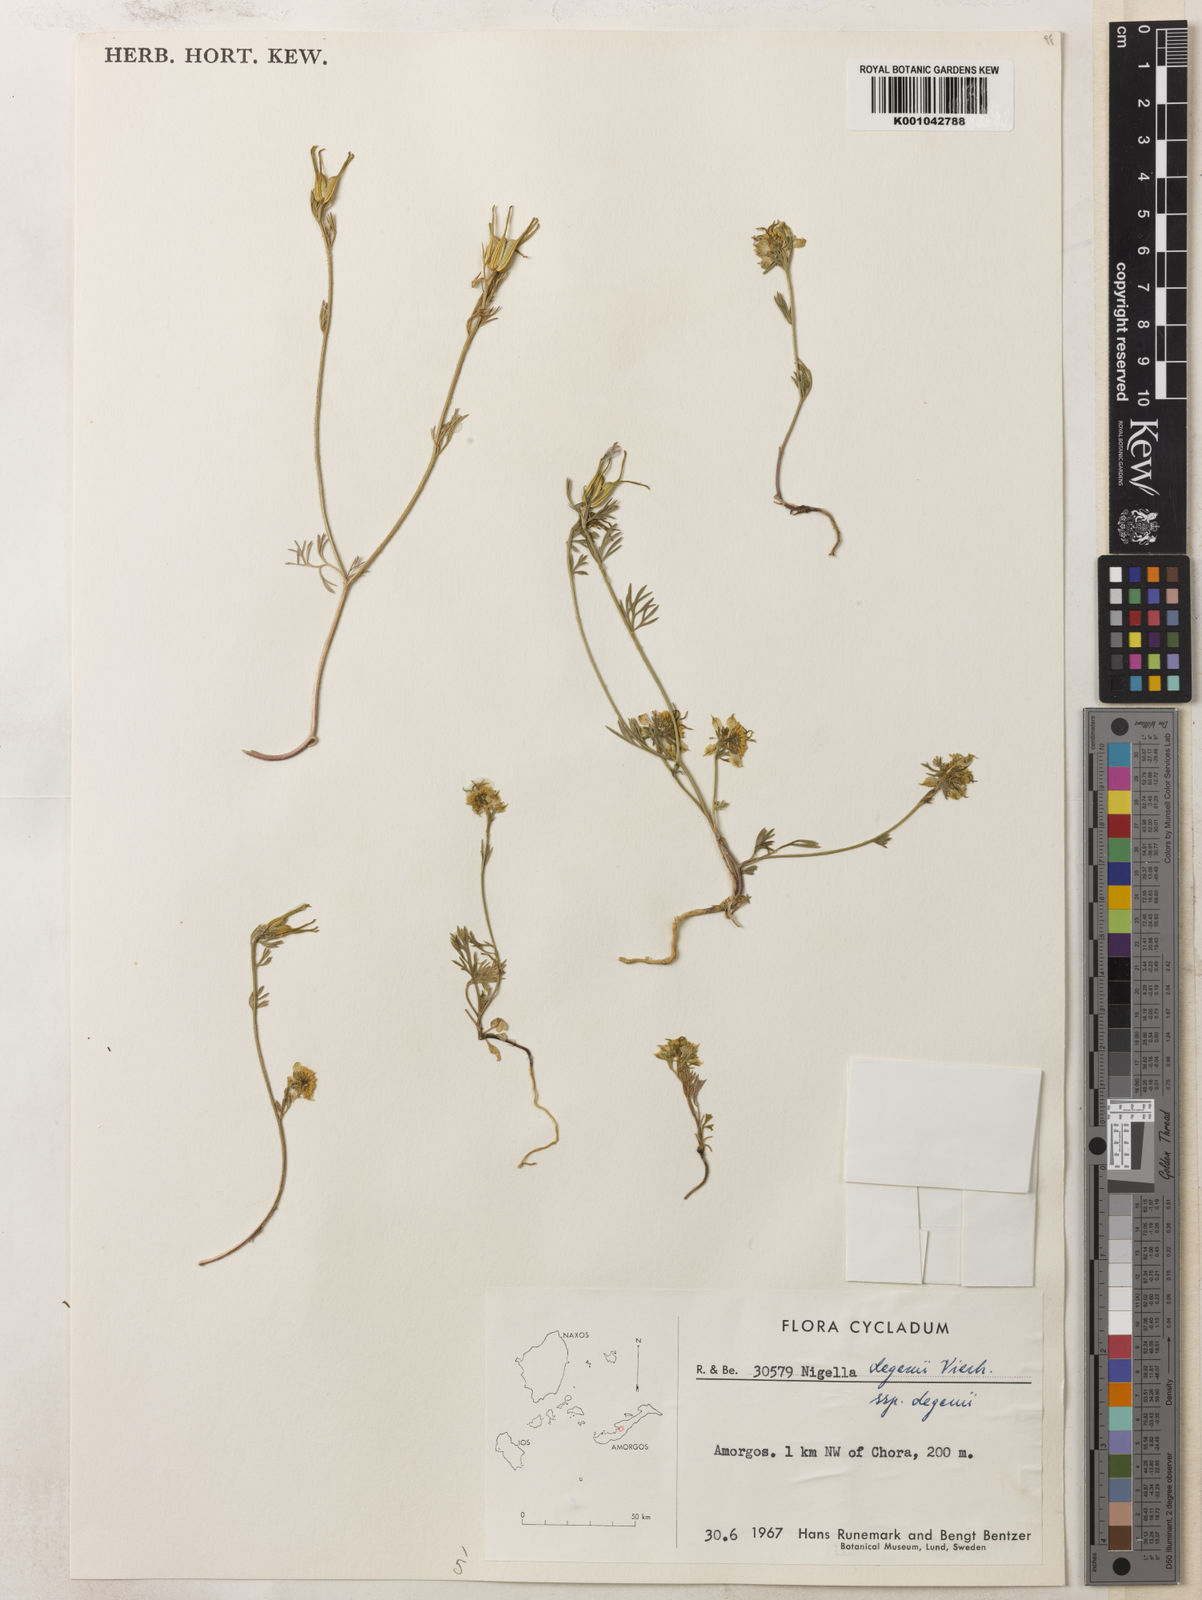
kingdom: Plantae
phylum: Tracheophyta
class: Magnoliopsida
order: Ranunculales
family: Ranunculaceae
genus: Nigella
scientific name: Nigella degenii
